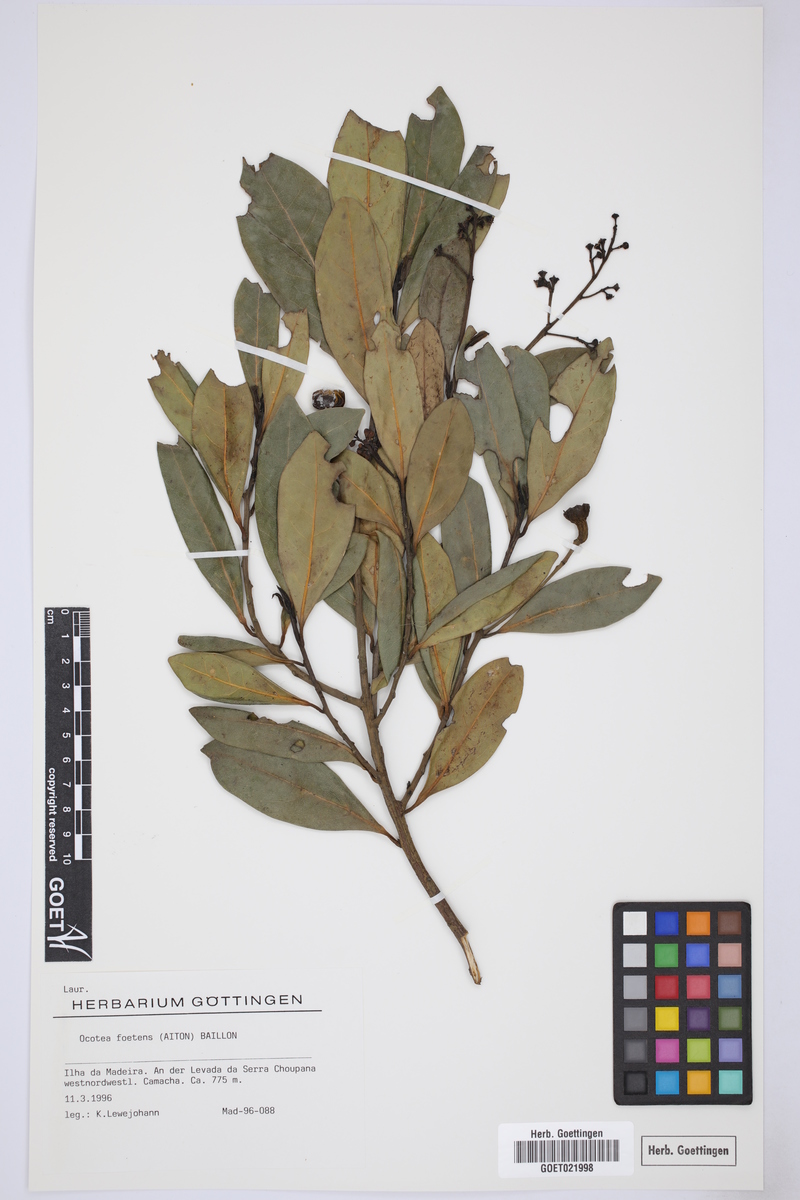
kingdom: Plantae
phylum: Tracheophyta
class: Magnoliopsida
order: Laurales
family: Lauraceae
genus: Mespilodaphne
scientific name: Mespilodaphne foetens
